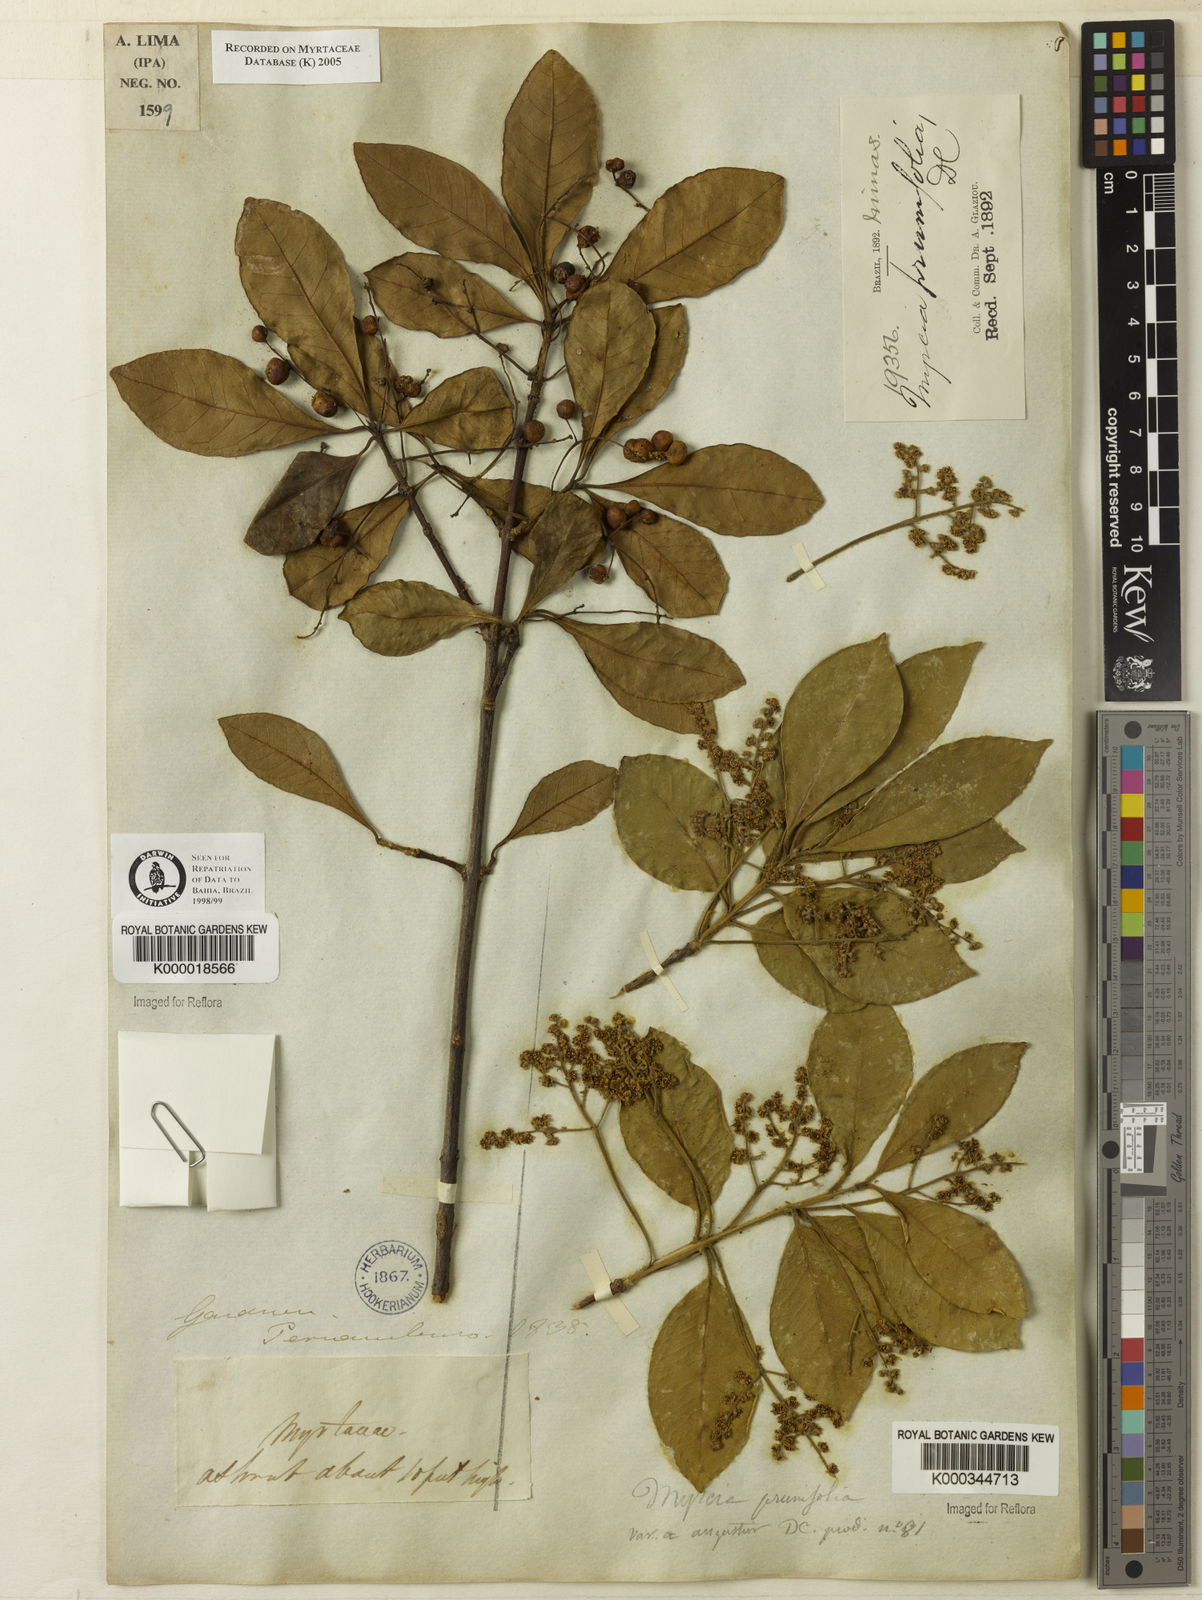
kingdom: Plantae
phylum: Tracheophyta
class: Magnoliopsida
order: Myrtales
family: Myrtaceae
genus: Myrcia
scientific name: Myrcia tomentosa
